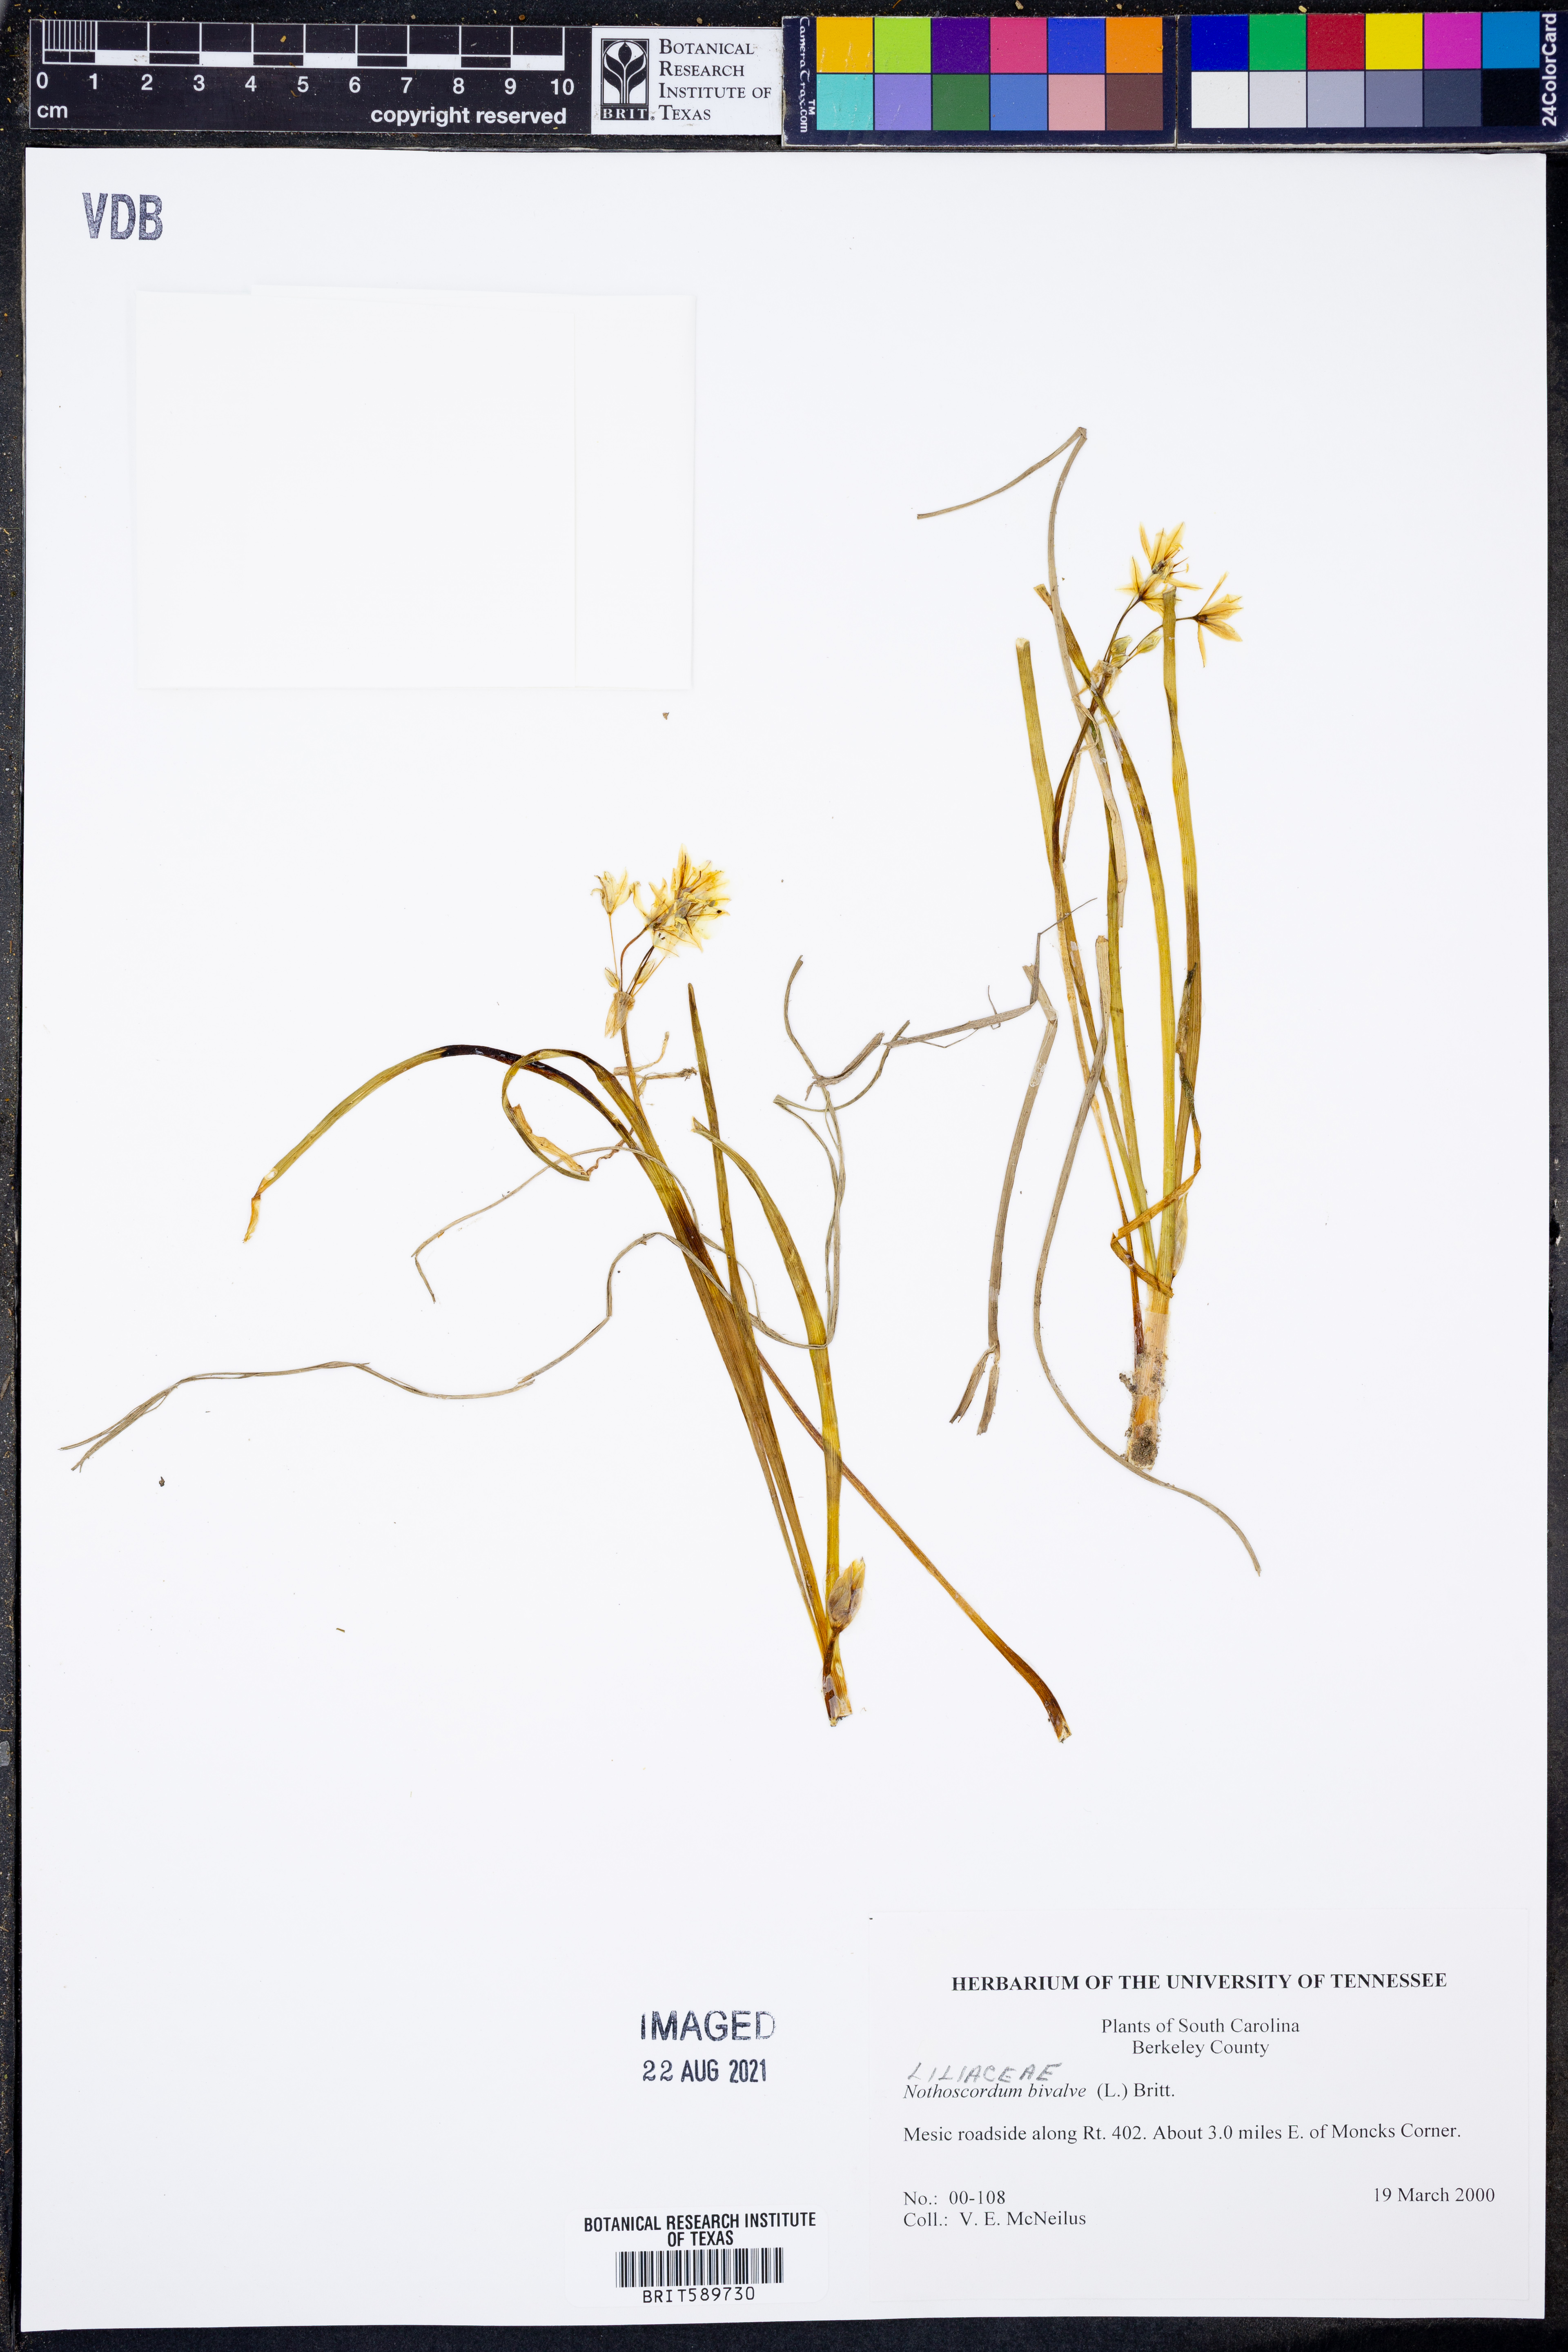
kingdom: Plantae
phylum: Tracheophyta
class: Liliopsida
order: Asparagales
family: Amaryllidaceae
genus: Nothoscordum
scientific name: Nothoscordum bivalve
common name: Crow-poison
